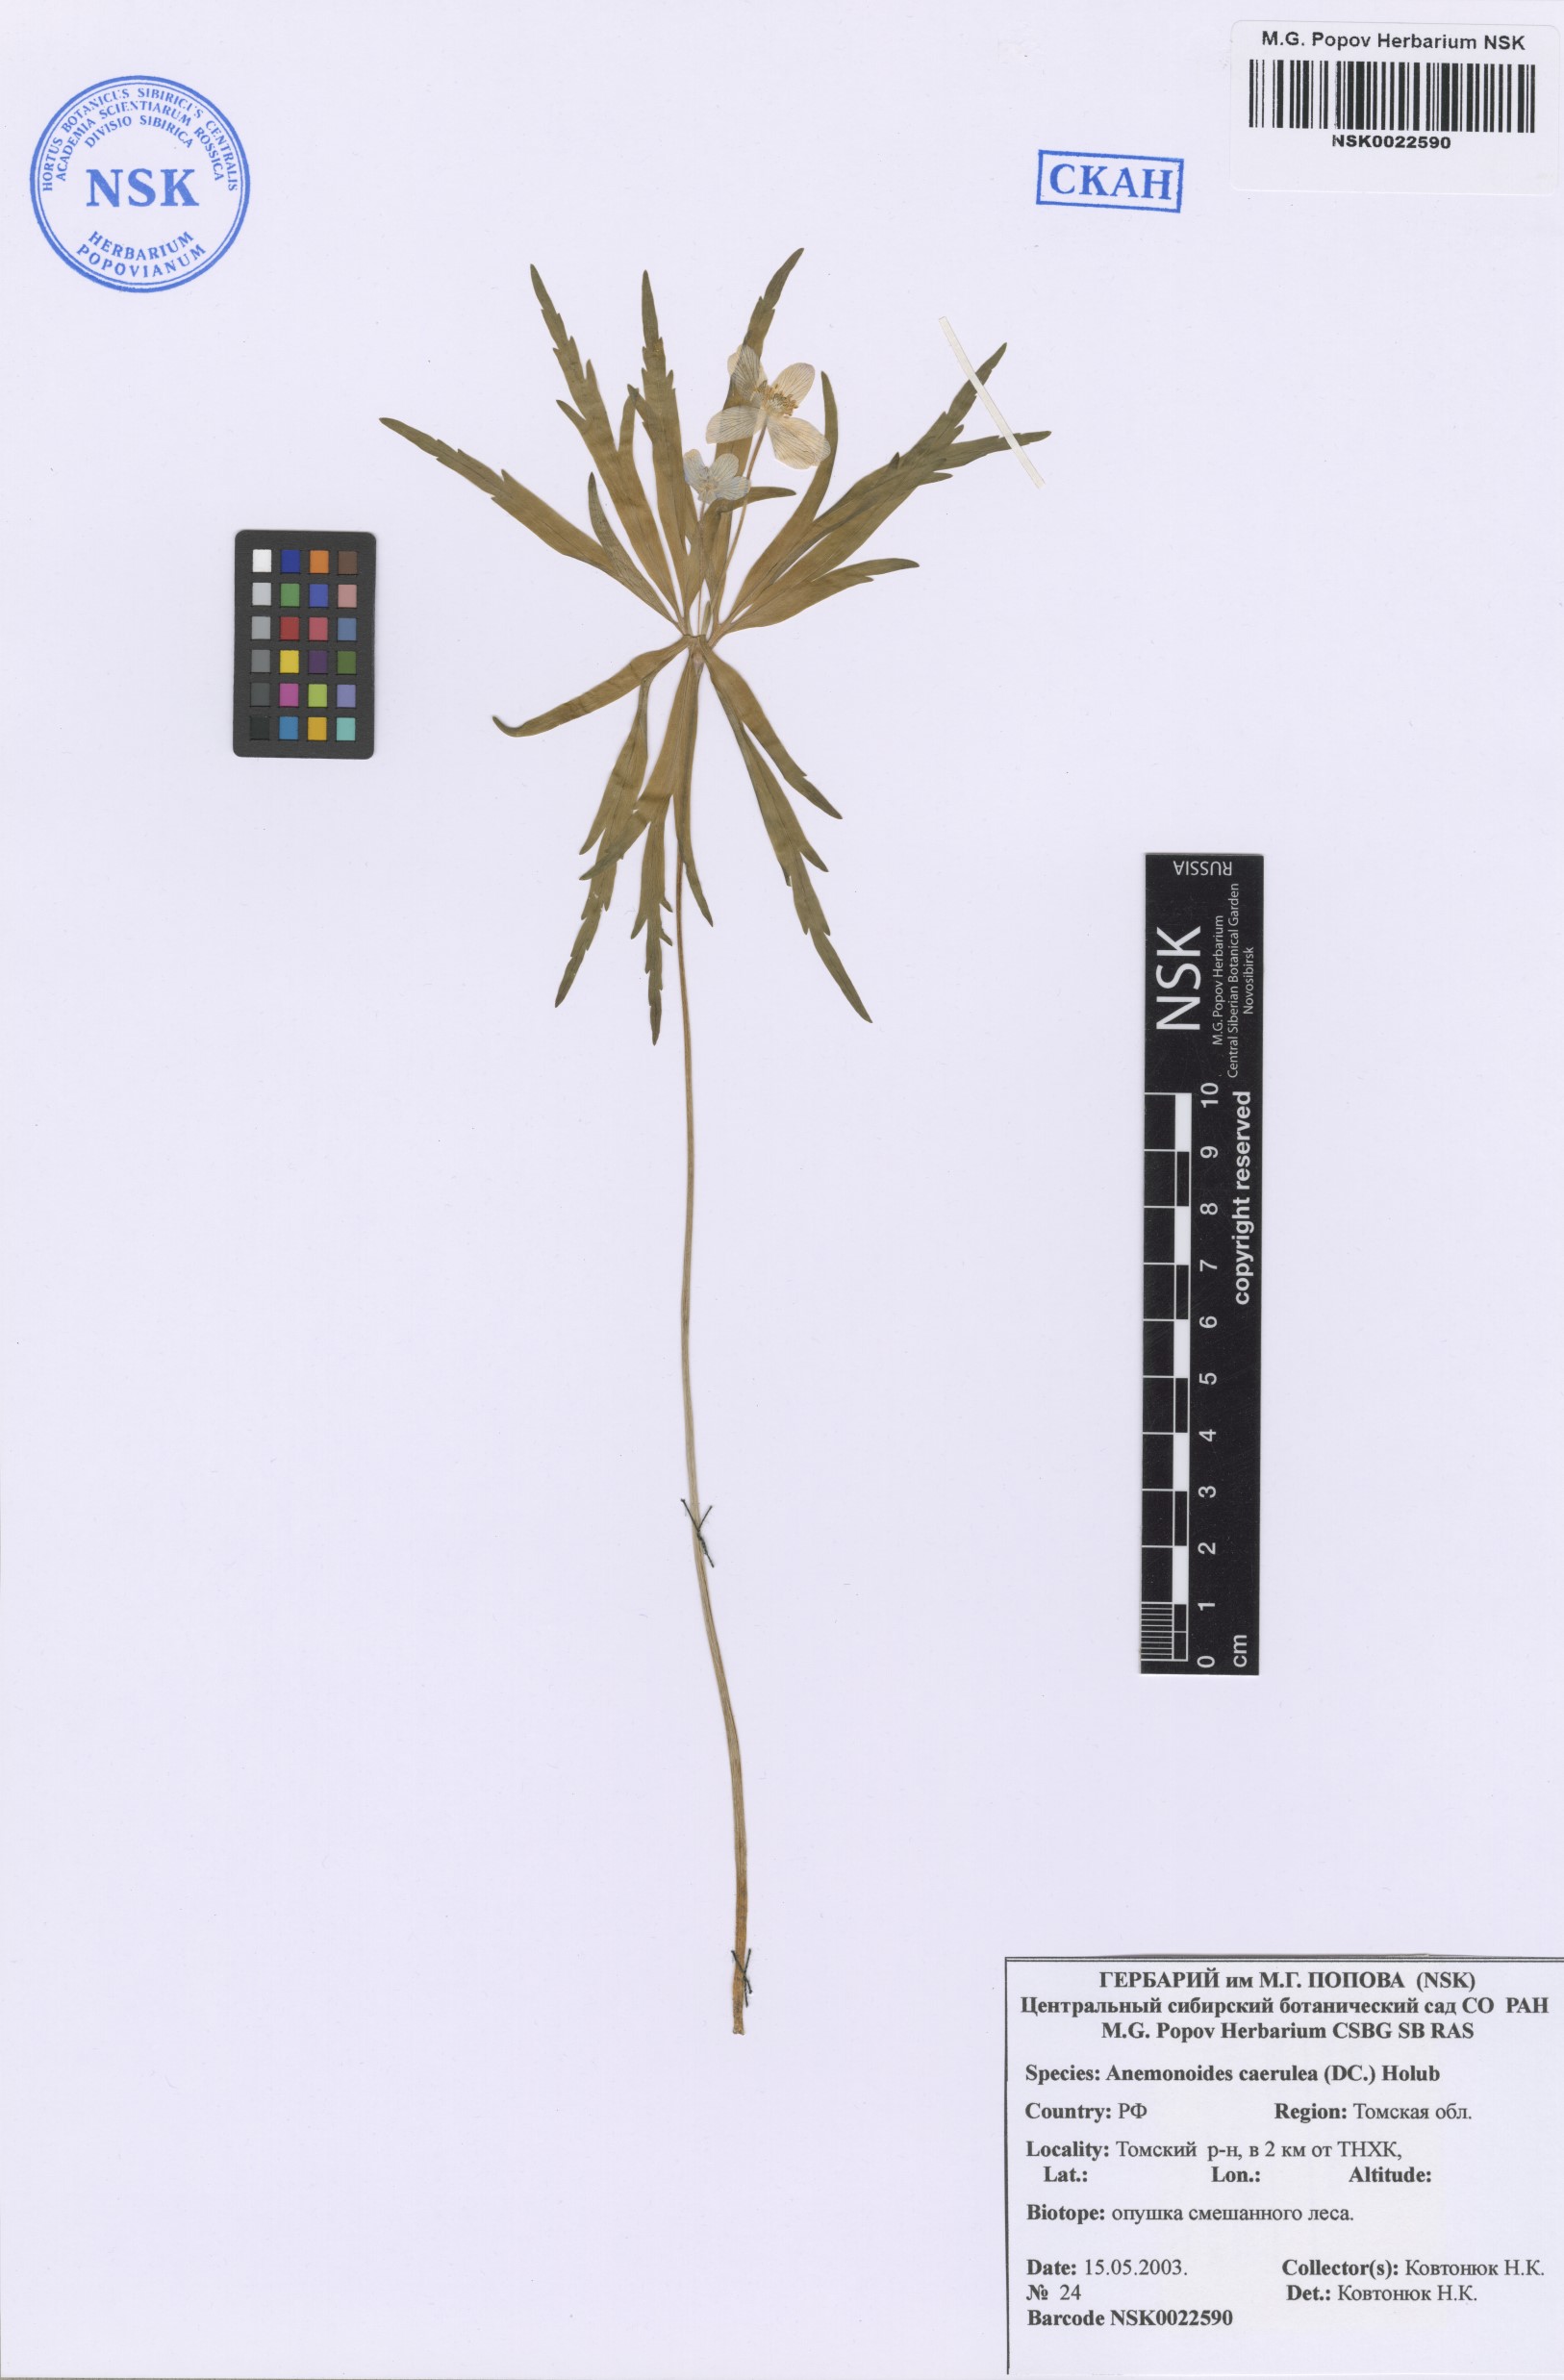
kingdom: Plantae
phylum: Tracheophyta
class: Magnoliopsida
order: Ranunculales
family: Ranunculaceae
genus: Anemone
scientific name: Anemone caerulea
